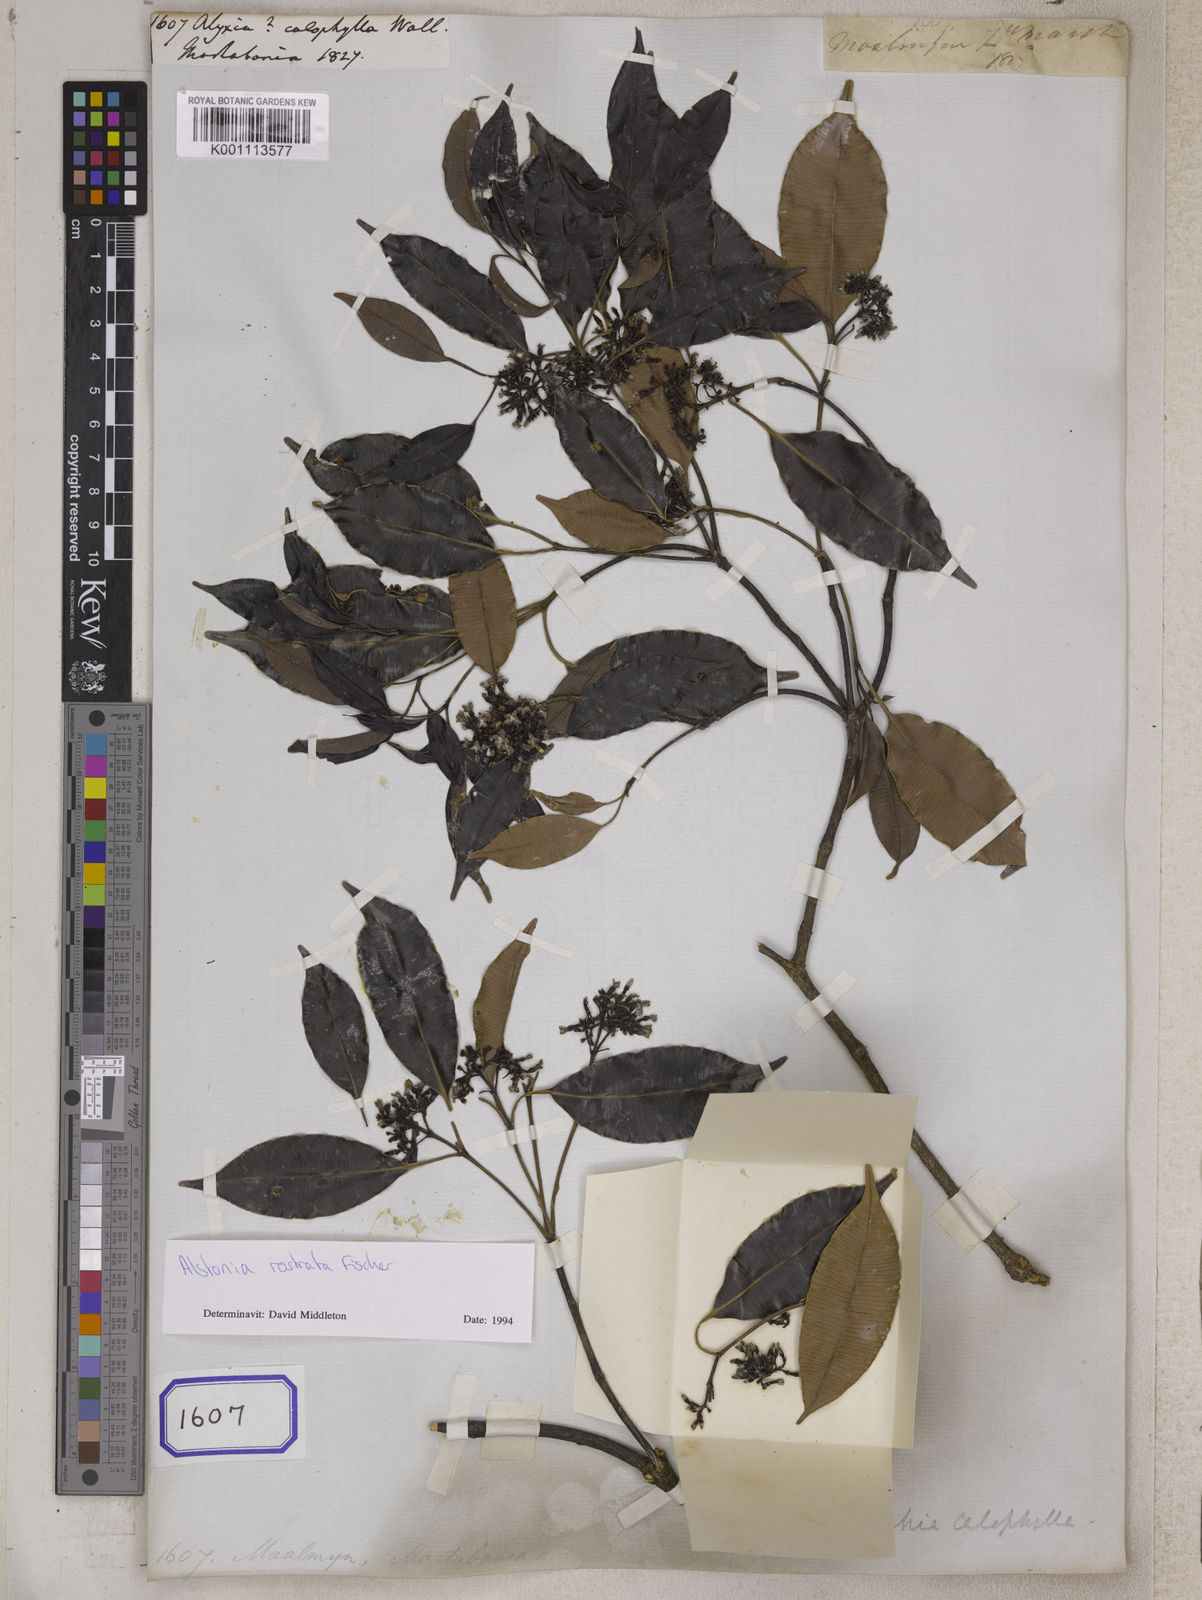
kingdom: Plantae
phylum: Tracheophyta
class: Magnoliopsida
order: Gentianales
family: Apocynaceae
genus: Alstonia
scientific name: Alstonia rostrata
